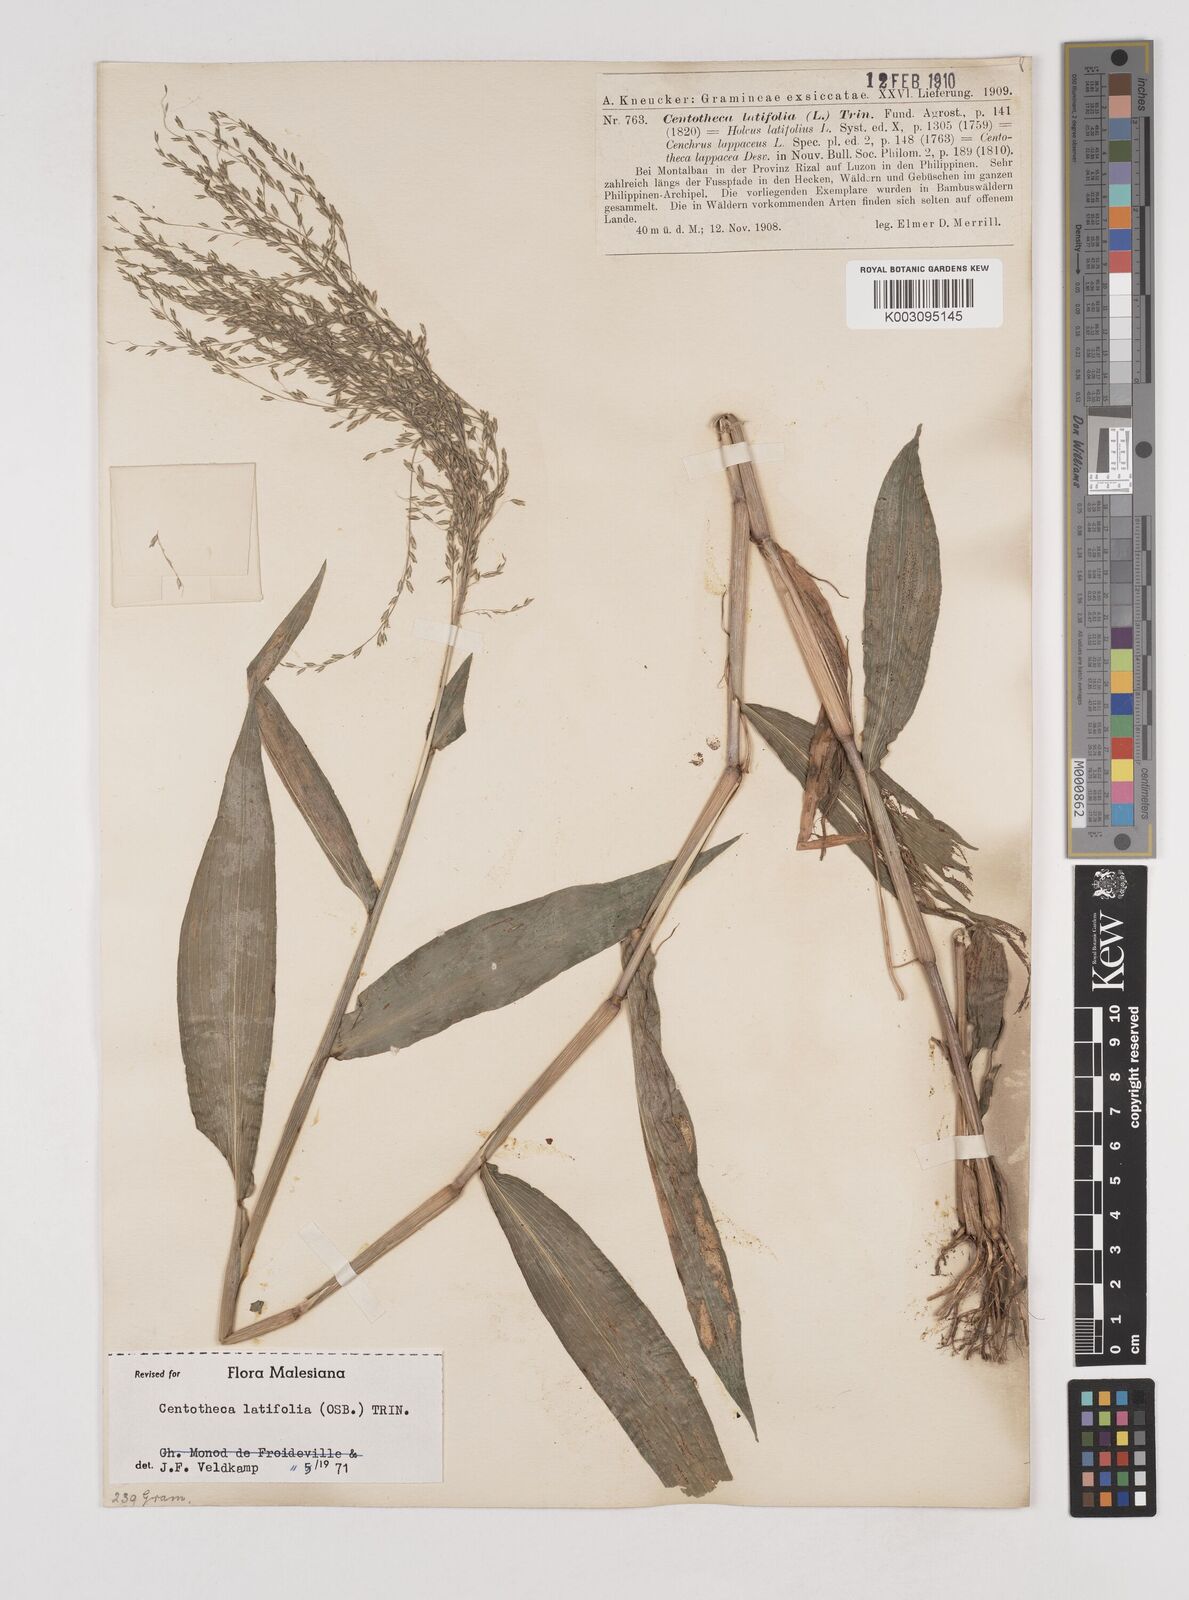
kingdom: Plantae
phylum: Tracheophyta
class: Liliopsida
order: Poales
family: Poaceae
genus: Centotheca
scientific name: Centotheca lappacea
